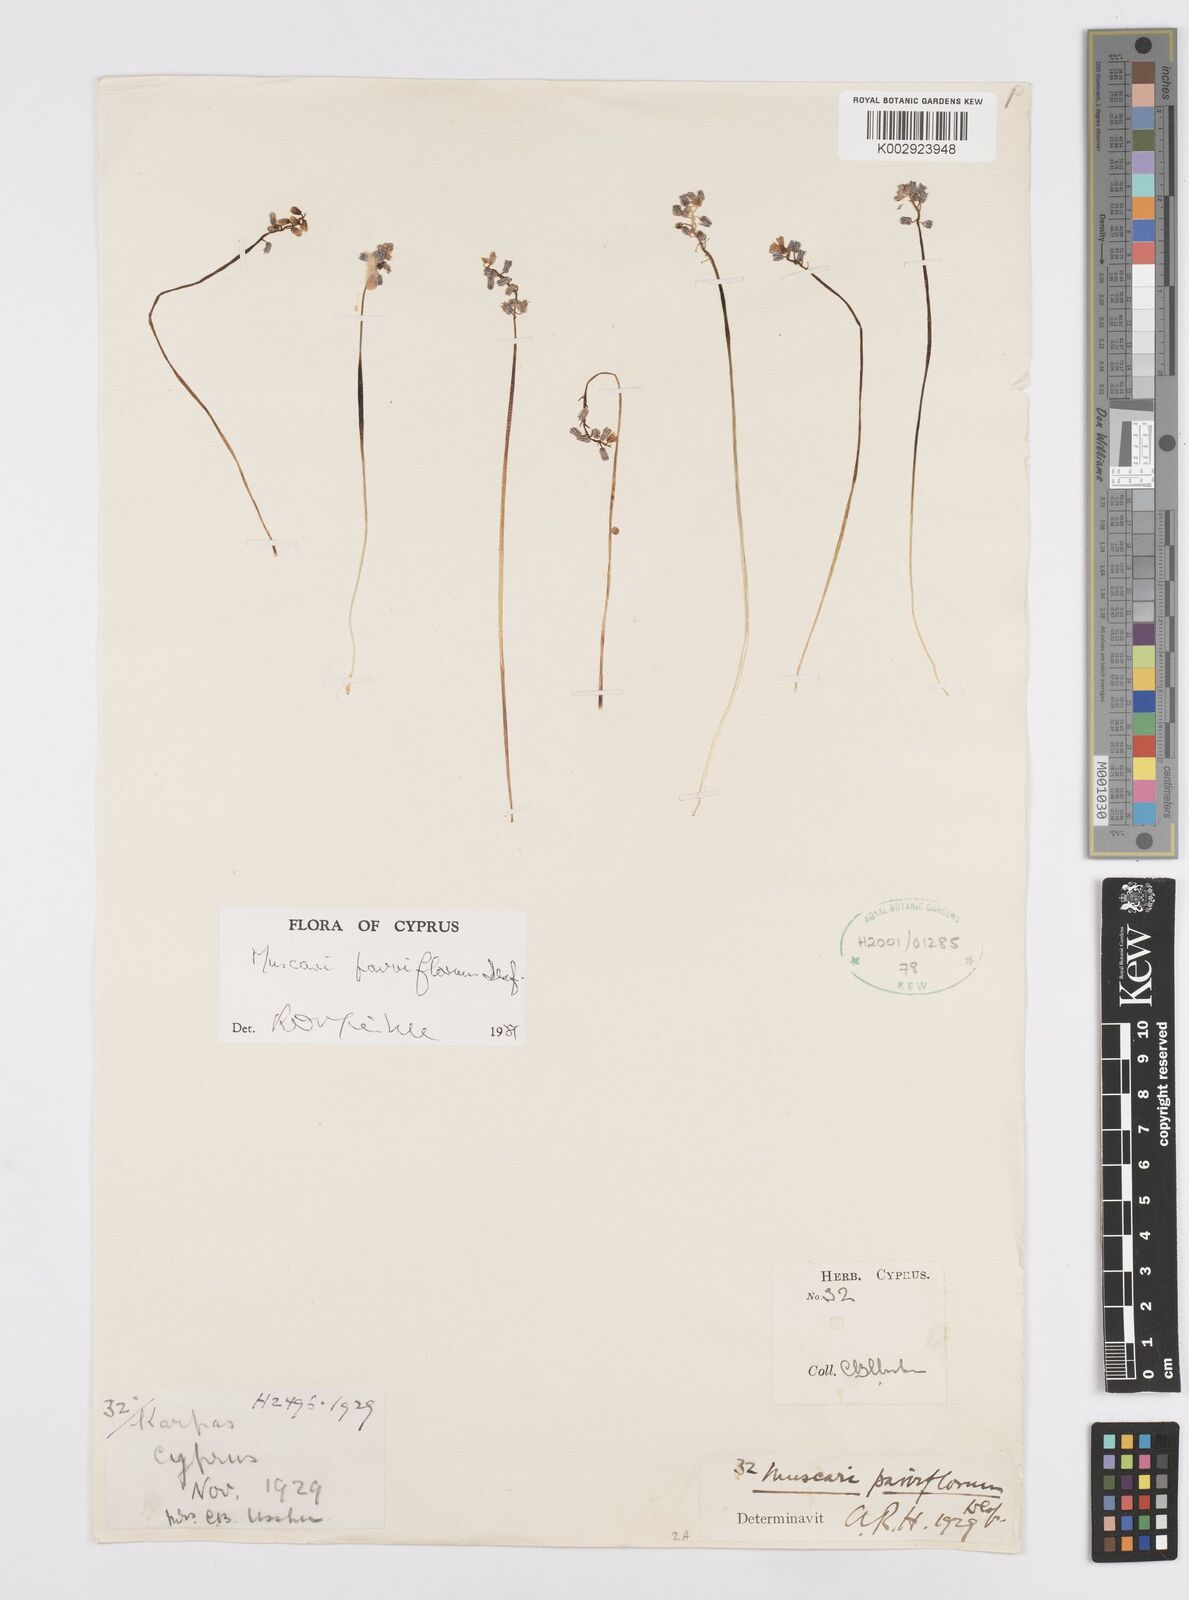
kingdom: Plantae
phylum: Tracheophyta
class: Liliopsida
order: Asparagales
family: Asparagaceae
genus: Muscari
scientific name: Muscari parviflorum
